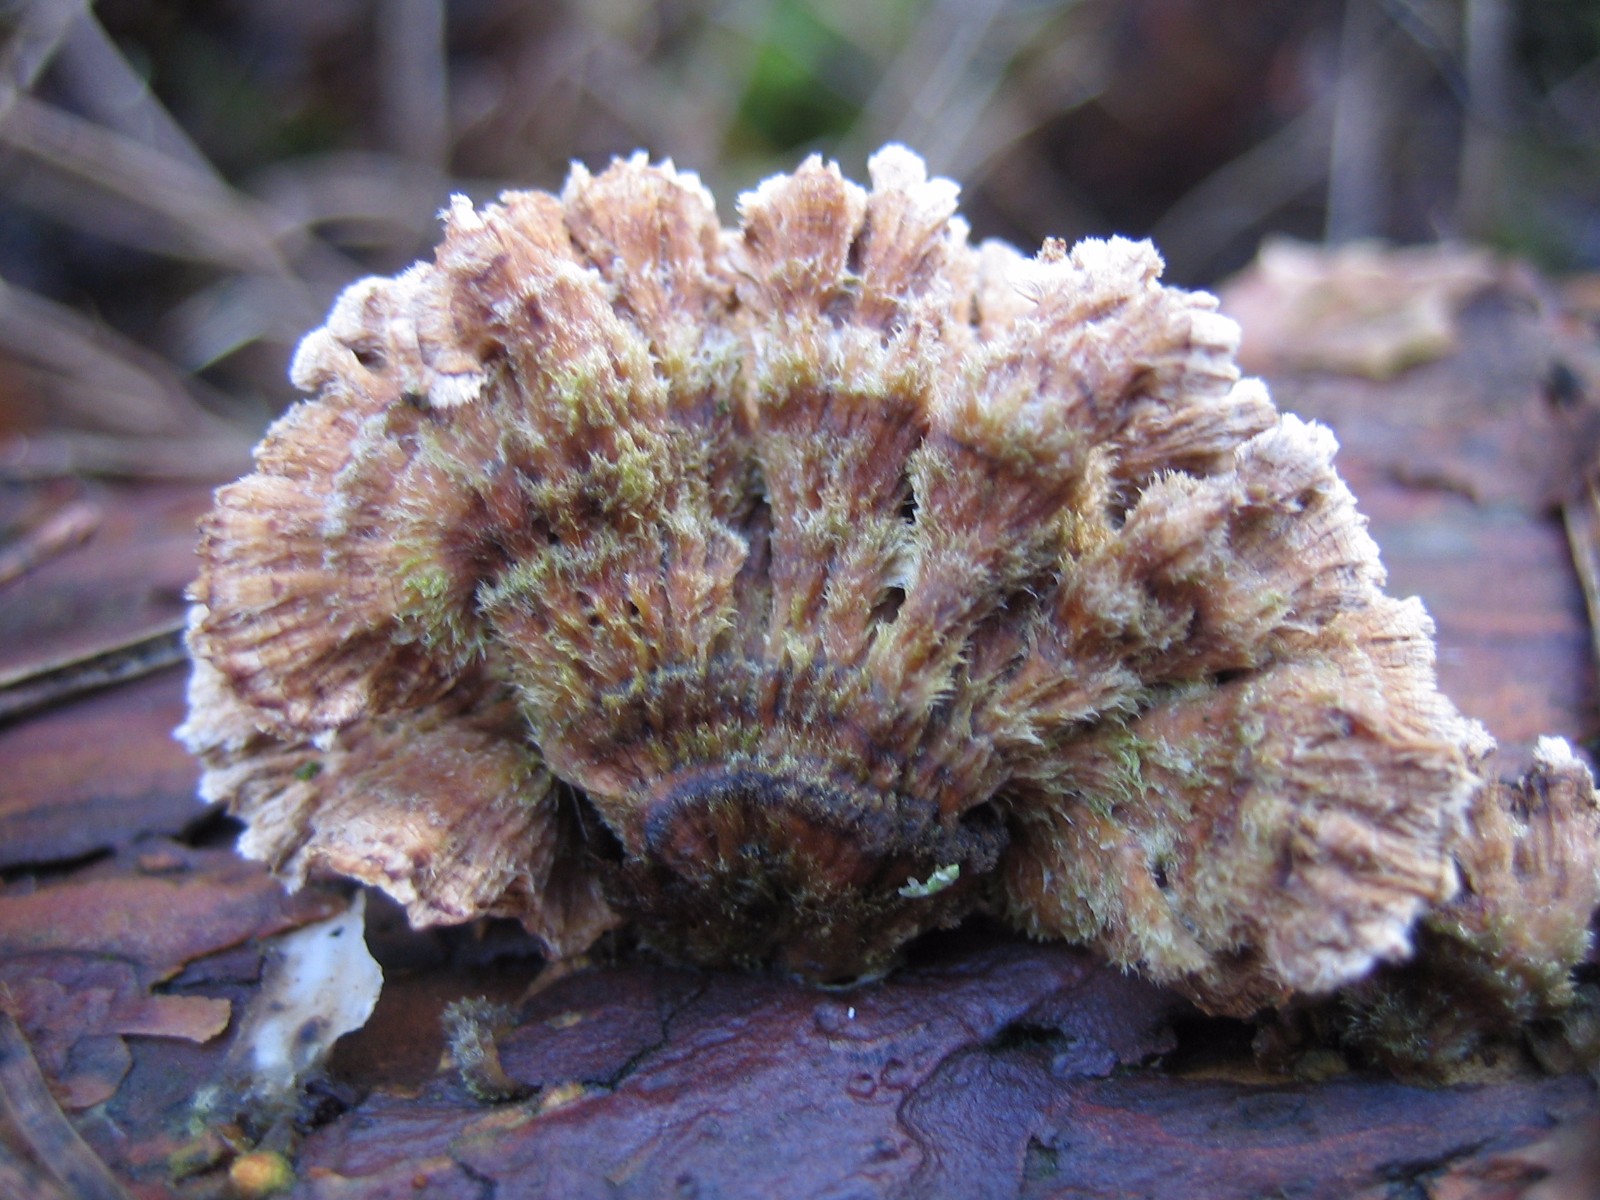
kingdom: Fungi
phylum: Basidiomycota
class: Agaricomycetes
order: Russulales
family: Stereaceae
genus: Stereum
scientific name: Stereum sanguinolentum
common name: blødende lædersvamp
